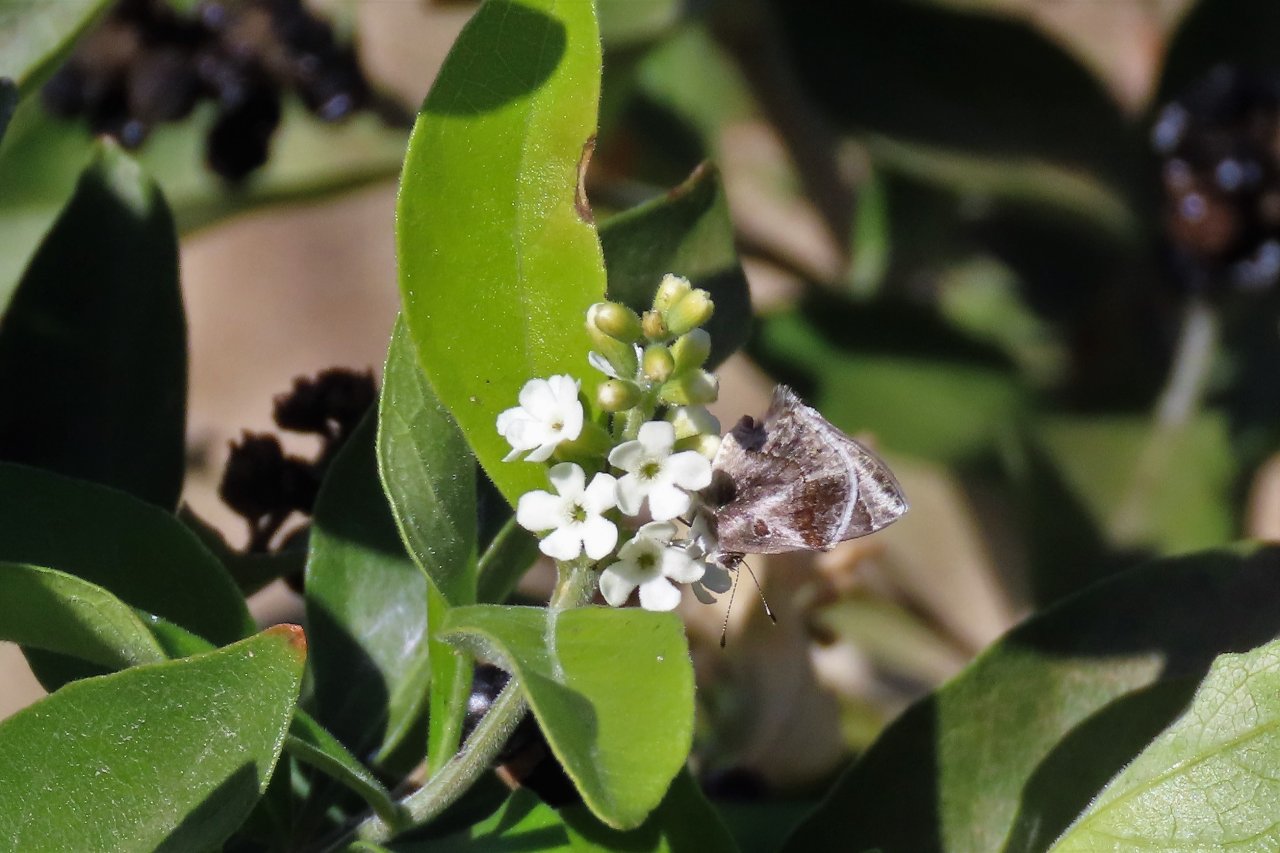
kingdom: Animalia
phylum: Arthropoda
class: Insecta
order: Lepidoptera
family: Lycaenidae
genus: Strymon
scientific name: Strymon bazochii
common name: Lantana Scrub-Hairstreak
